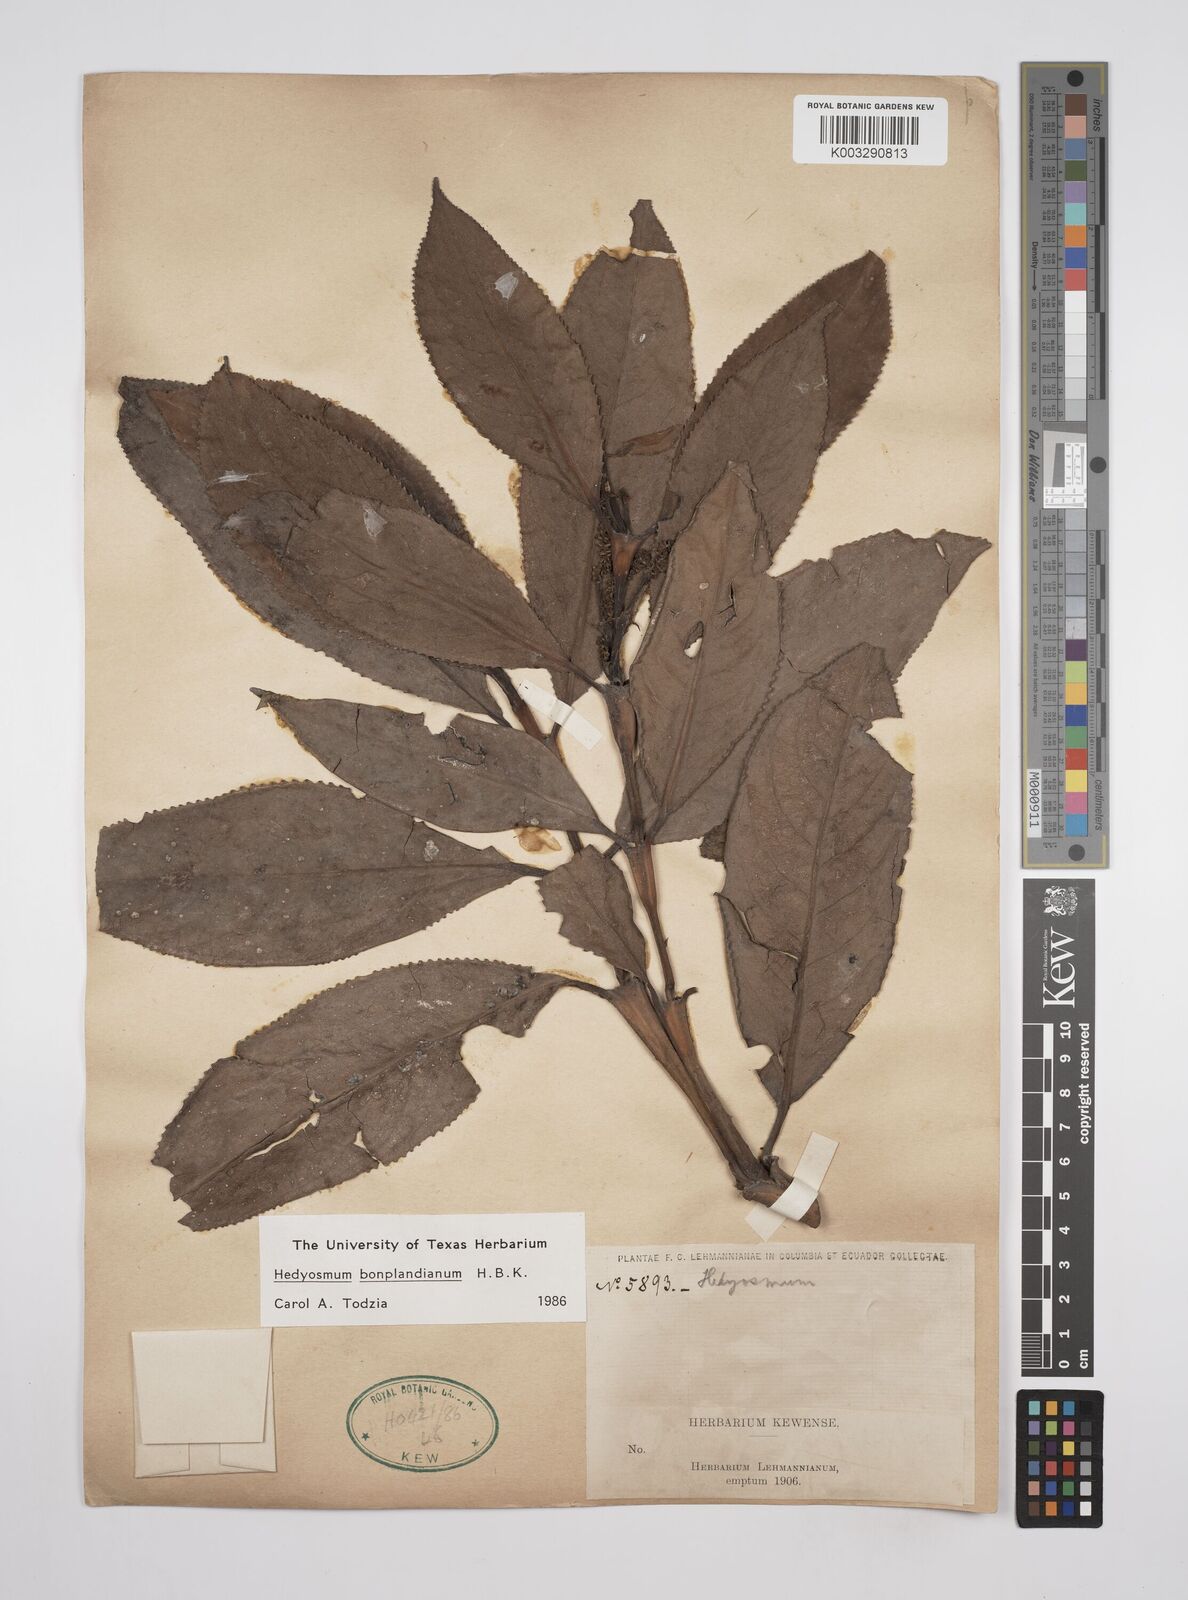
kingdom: Plantae
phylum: Tracheophyta
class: Magnoliopsida
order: Chloranthales
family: Chloranthaceae
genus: Hedyosmum
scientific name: Hedyosmum
